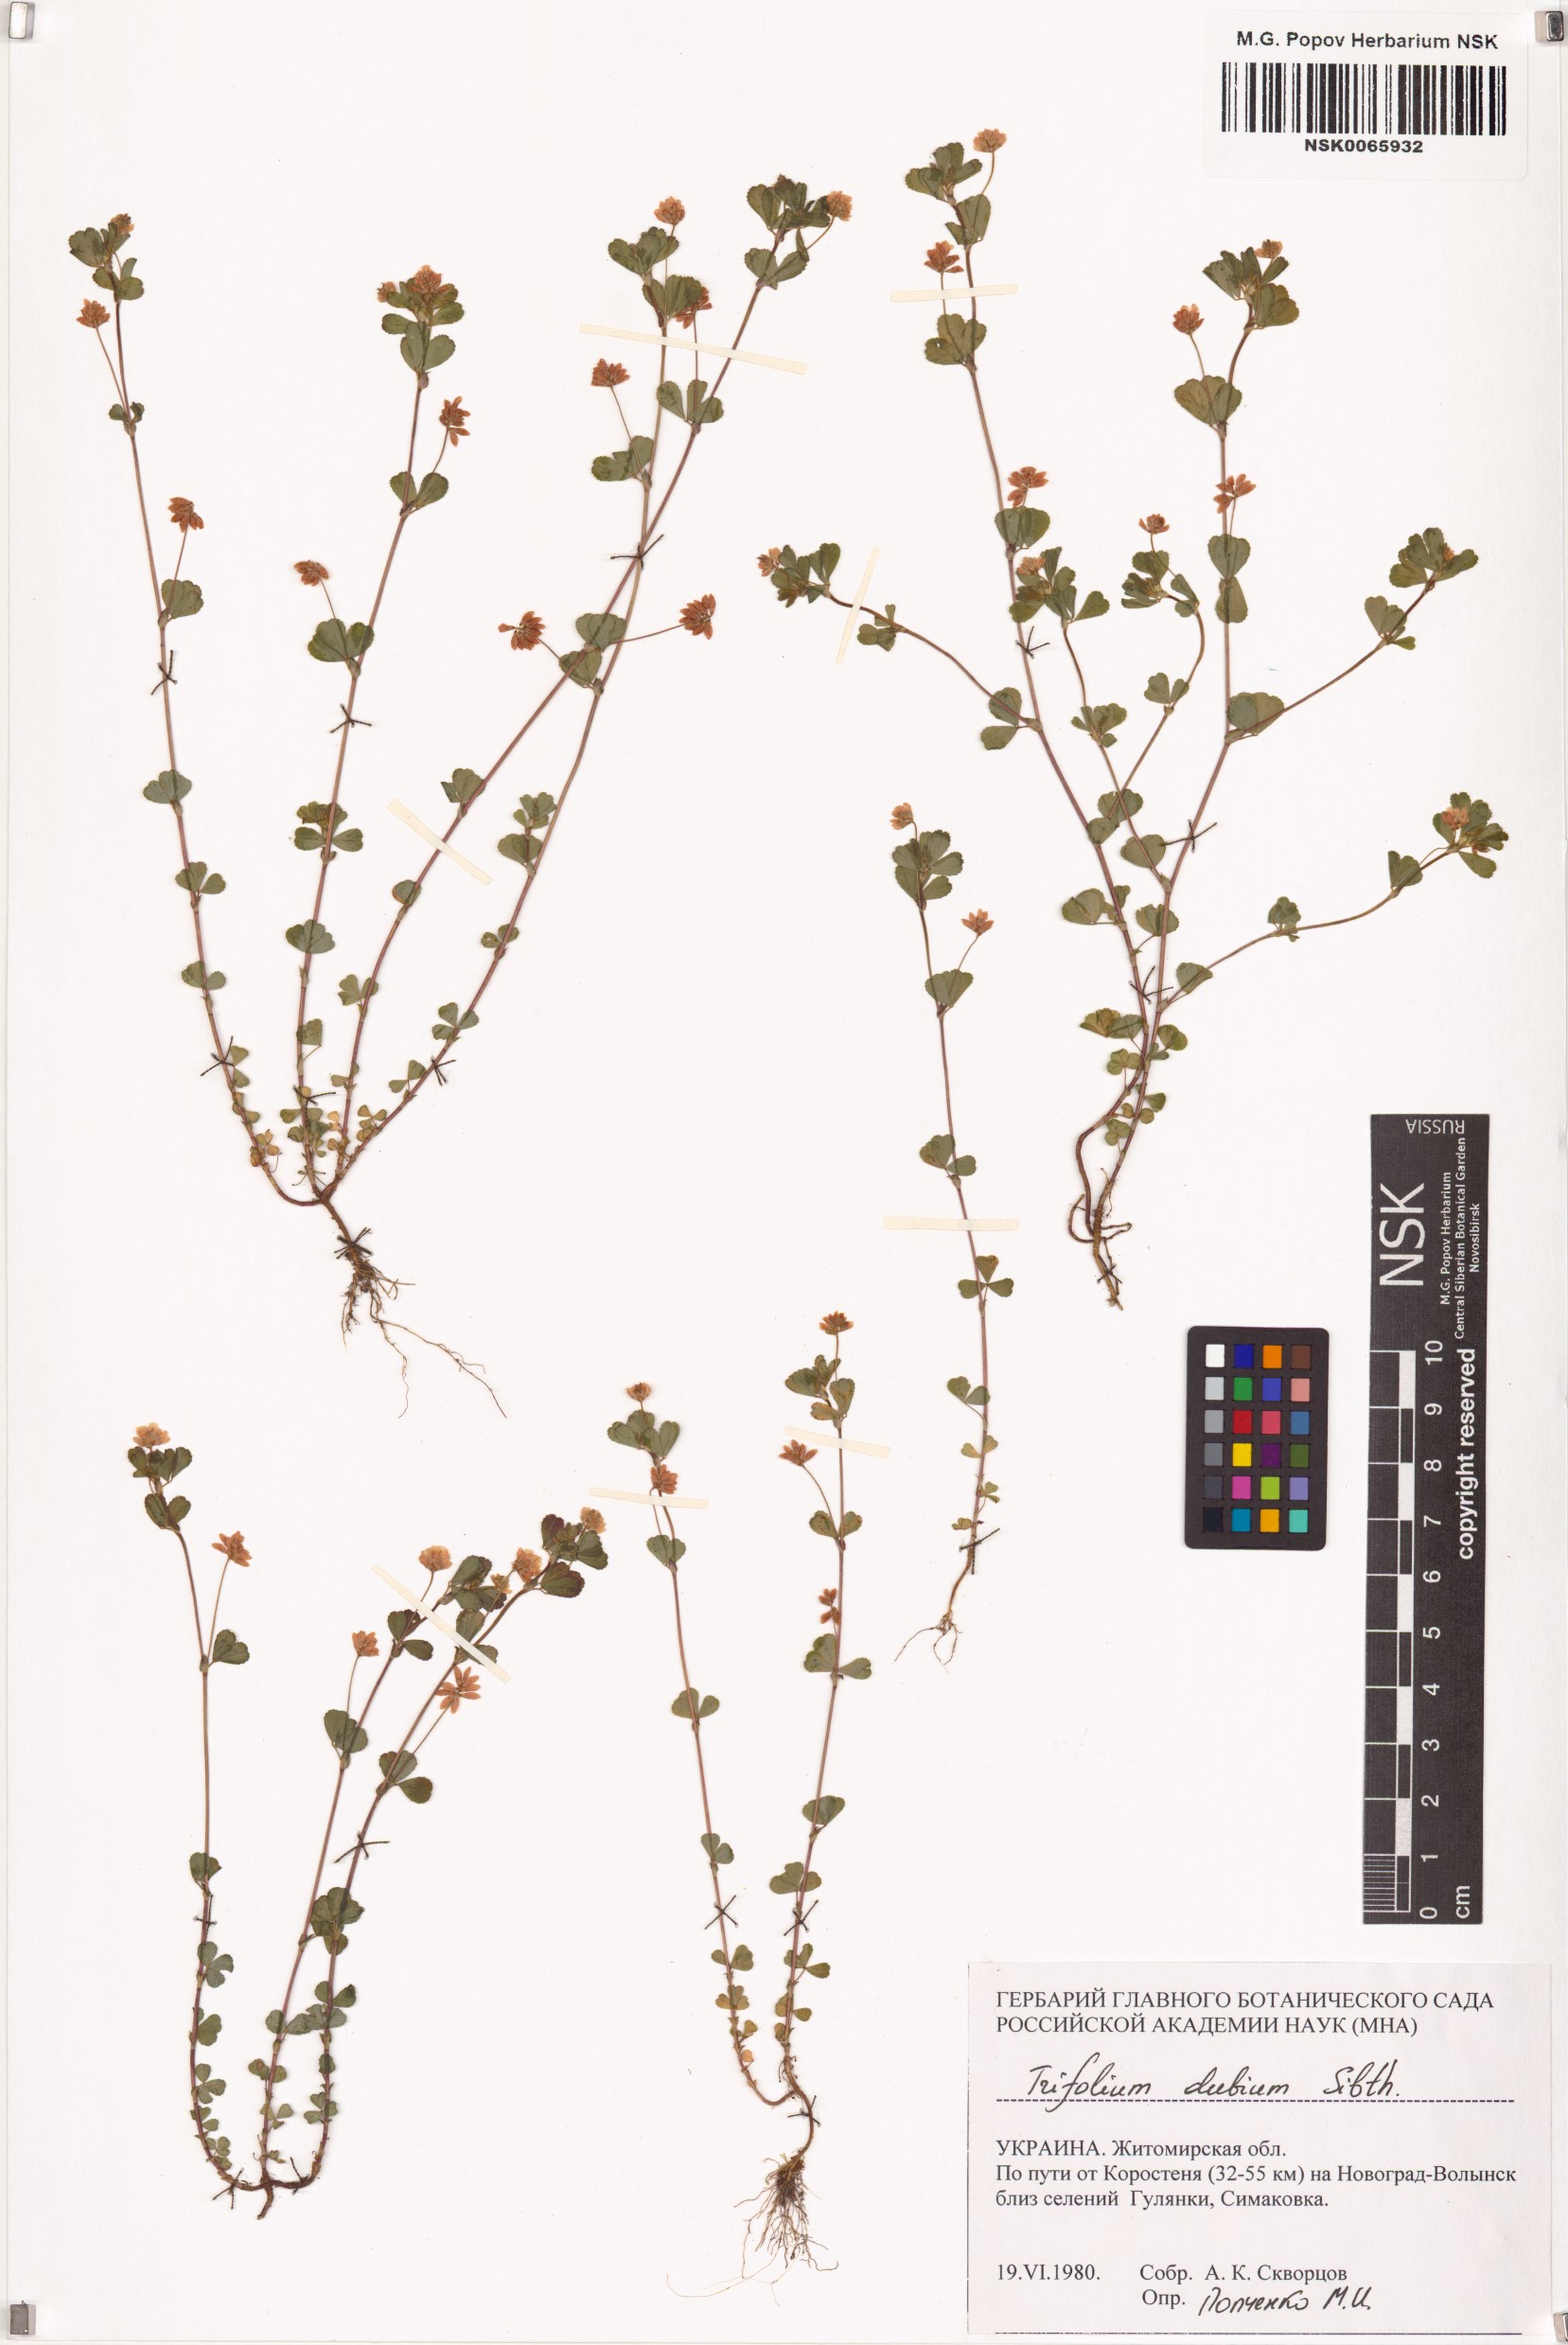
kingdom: Plantae
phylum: Tracheophyta
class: Magnoliopsida
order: Fabales
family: Fabaceae
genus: Trifolium
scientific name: Trifolium dubium
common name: Suckling clover
